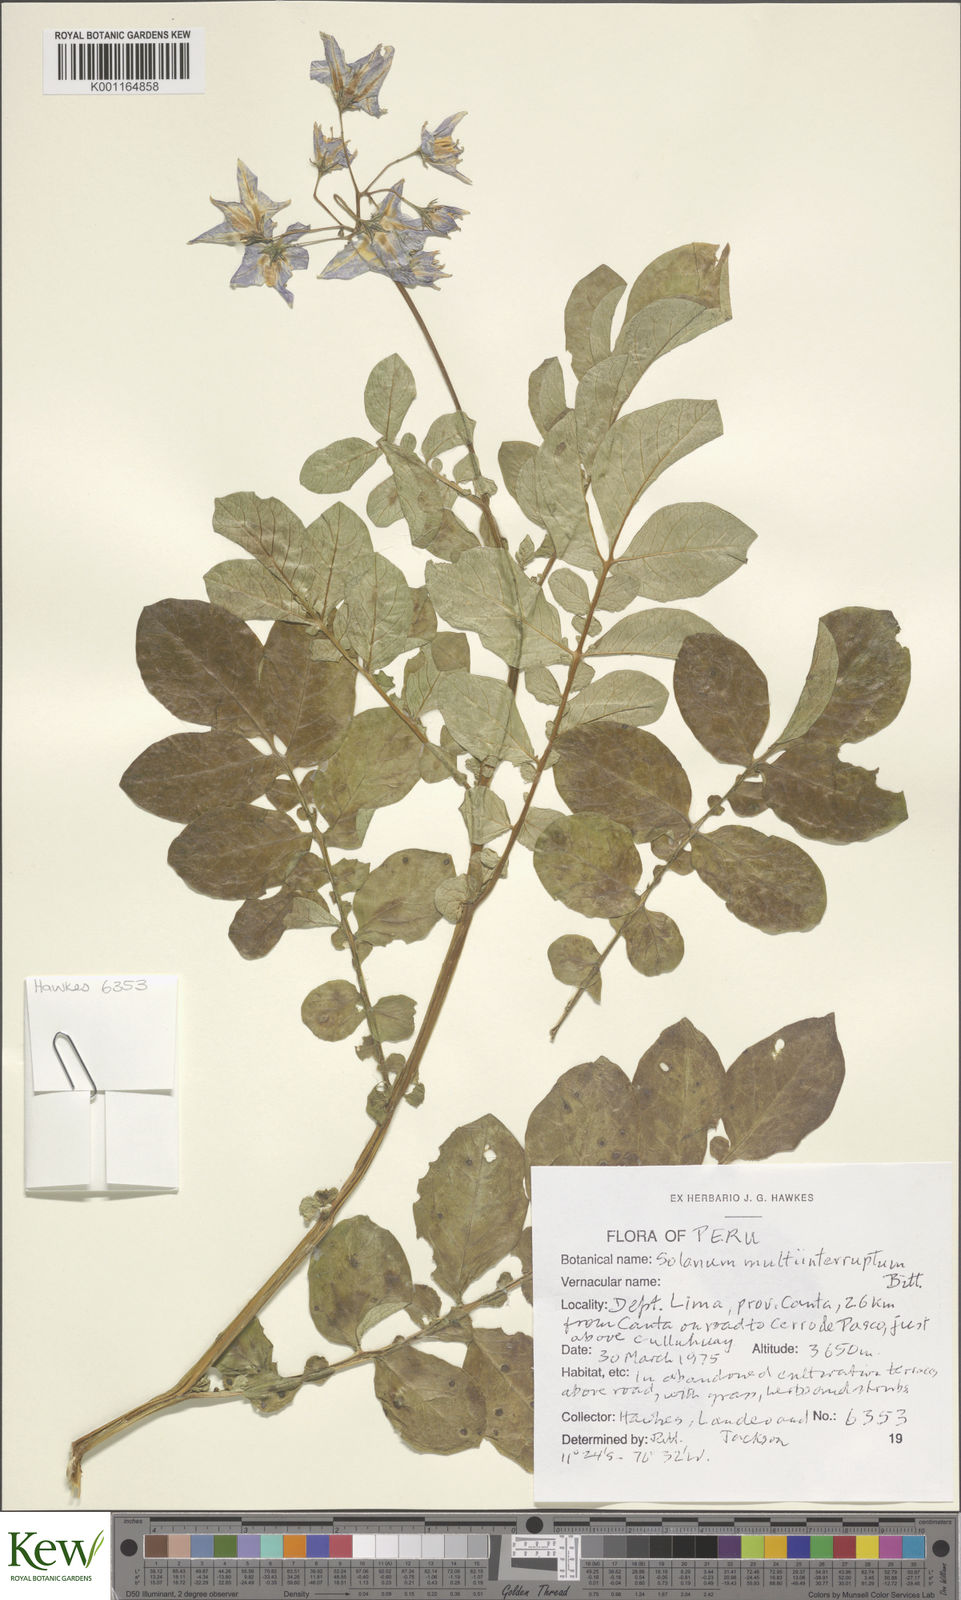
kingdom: Plantae
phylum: Tracheophyta
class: Magnoliopsida
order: Solanales
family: Solanaceae
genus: Solanum
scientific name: Solanum multiinterruptum
